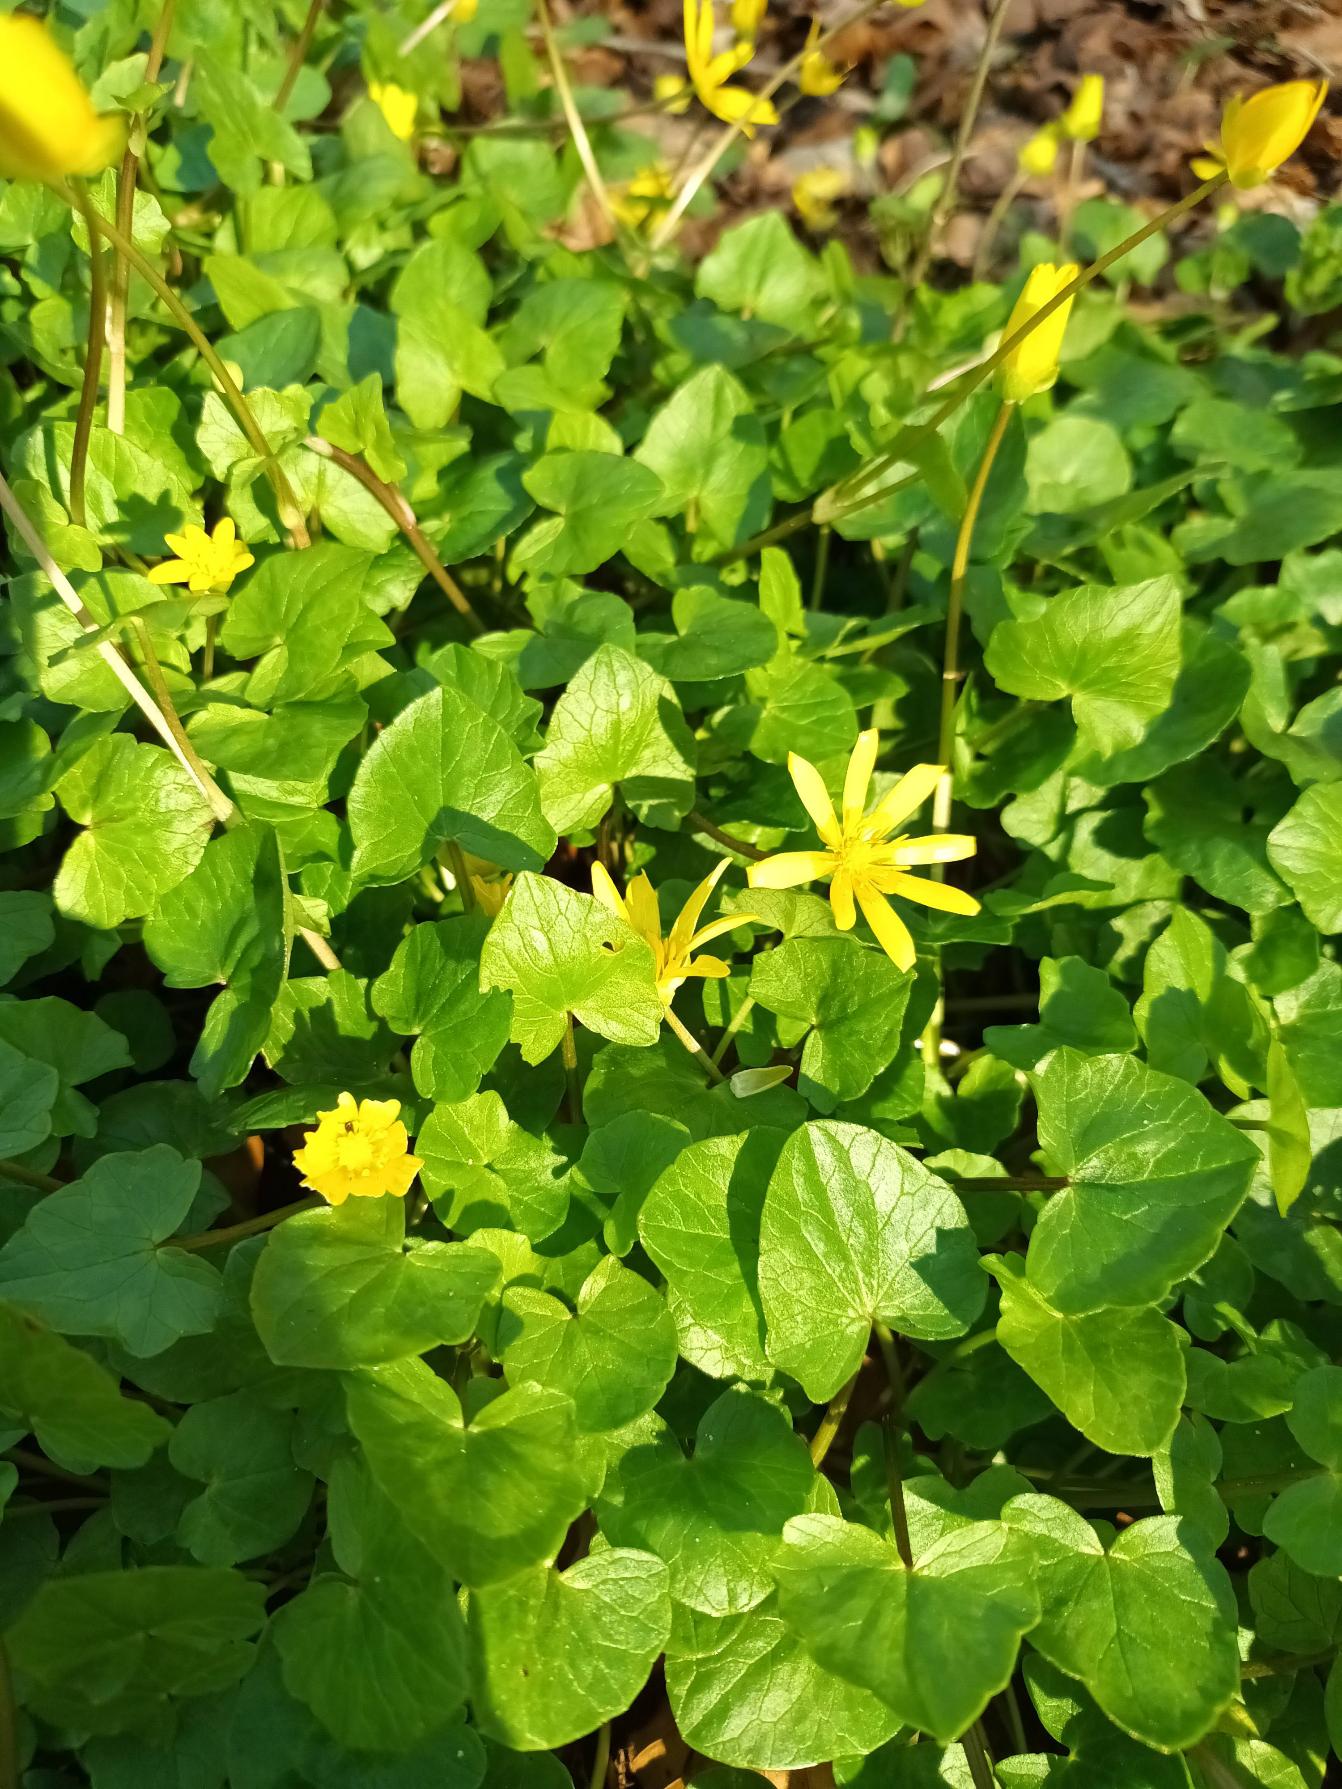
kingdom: Plantae
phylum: Tracheophyta
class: Magnoliopsida
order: Ranunculales
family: Ranunculaceae
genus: Ficaria
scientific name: Ficaria verna
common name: Vorterod
